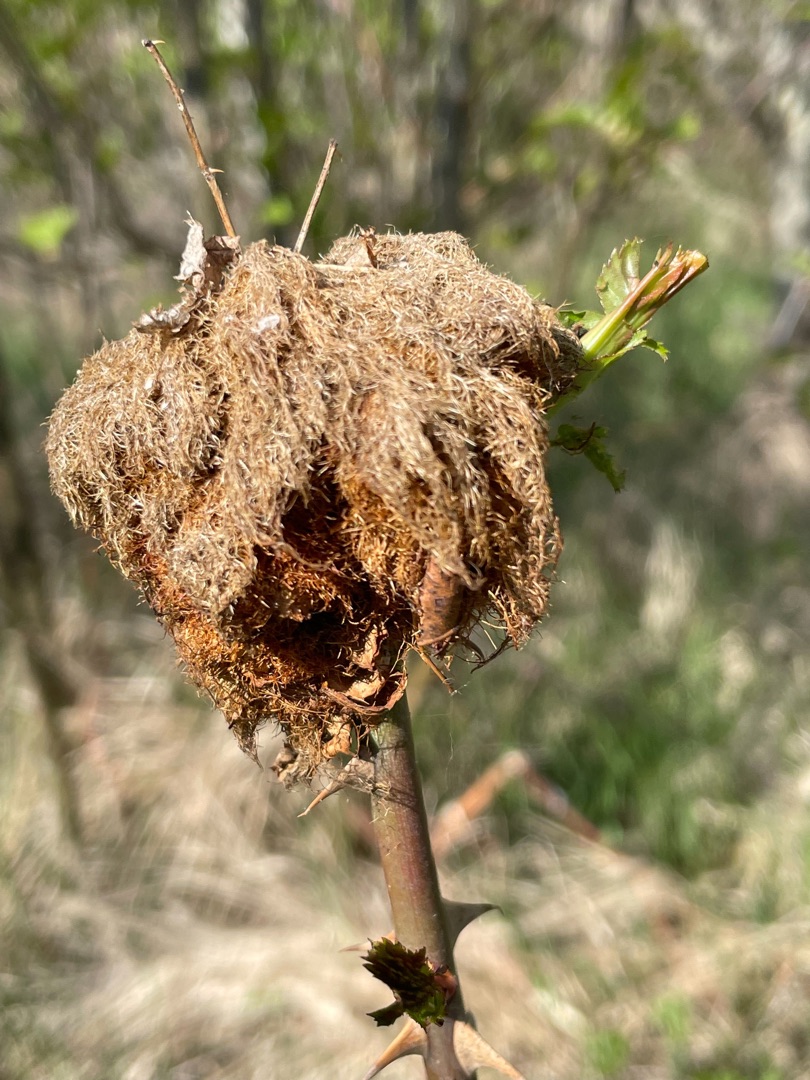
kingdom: Animalia
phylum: Arthropoda
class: Insecta
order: Hymenoptera
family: Cynipidae
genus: Diplolepis
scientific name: Diplolepis rosae
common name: Bedeguargalhveps
